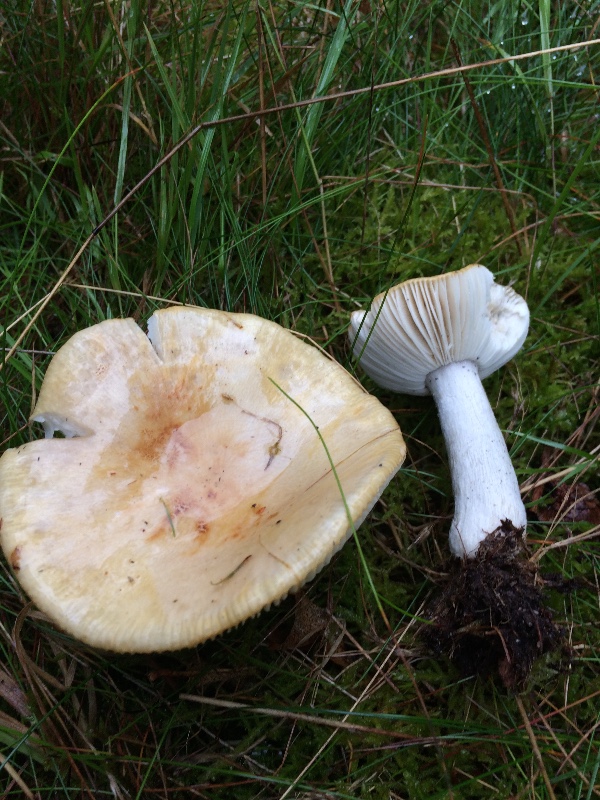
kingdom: Fungi
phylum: Basidiomycota
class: Agaricomycetes
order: Russulales
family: Russulaceae
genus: Russula
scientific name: Russula ochroleuca
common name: okkergul skørhat
